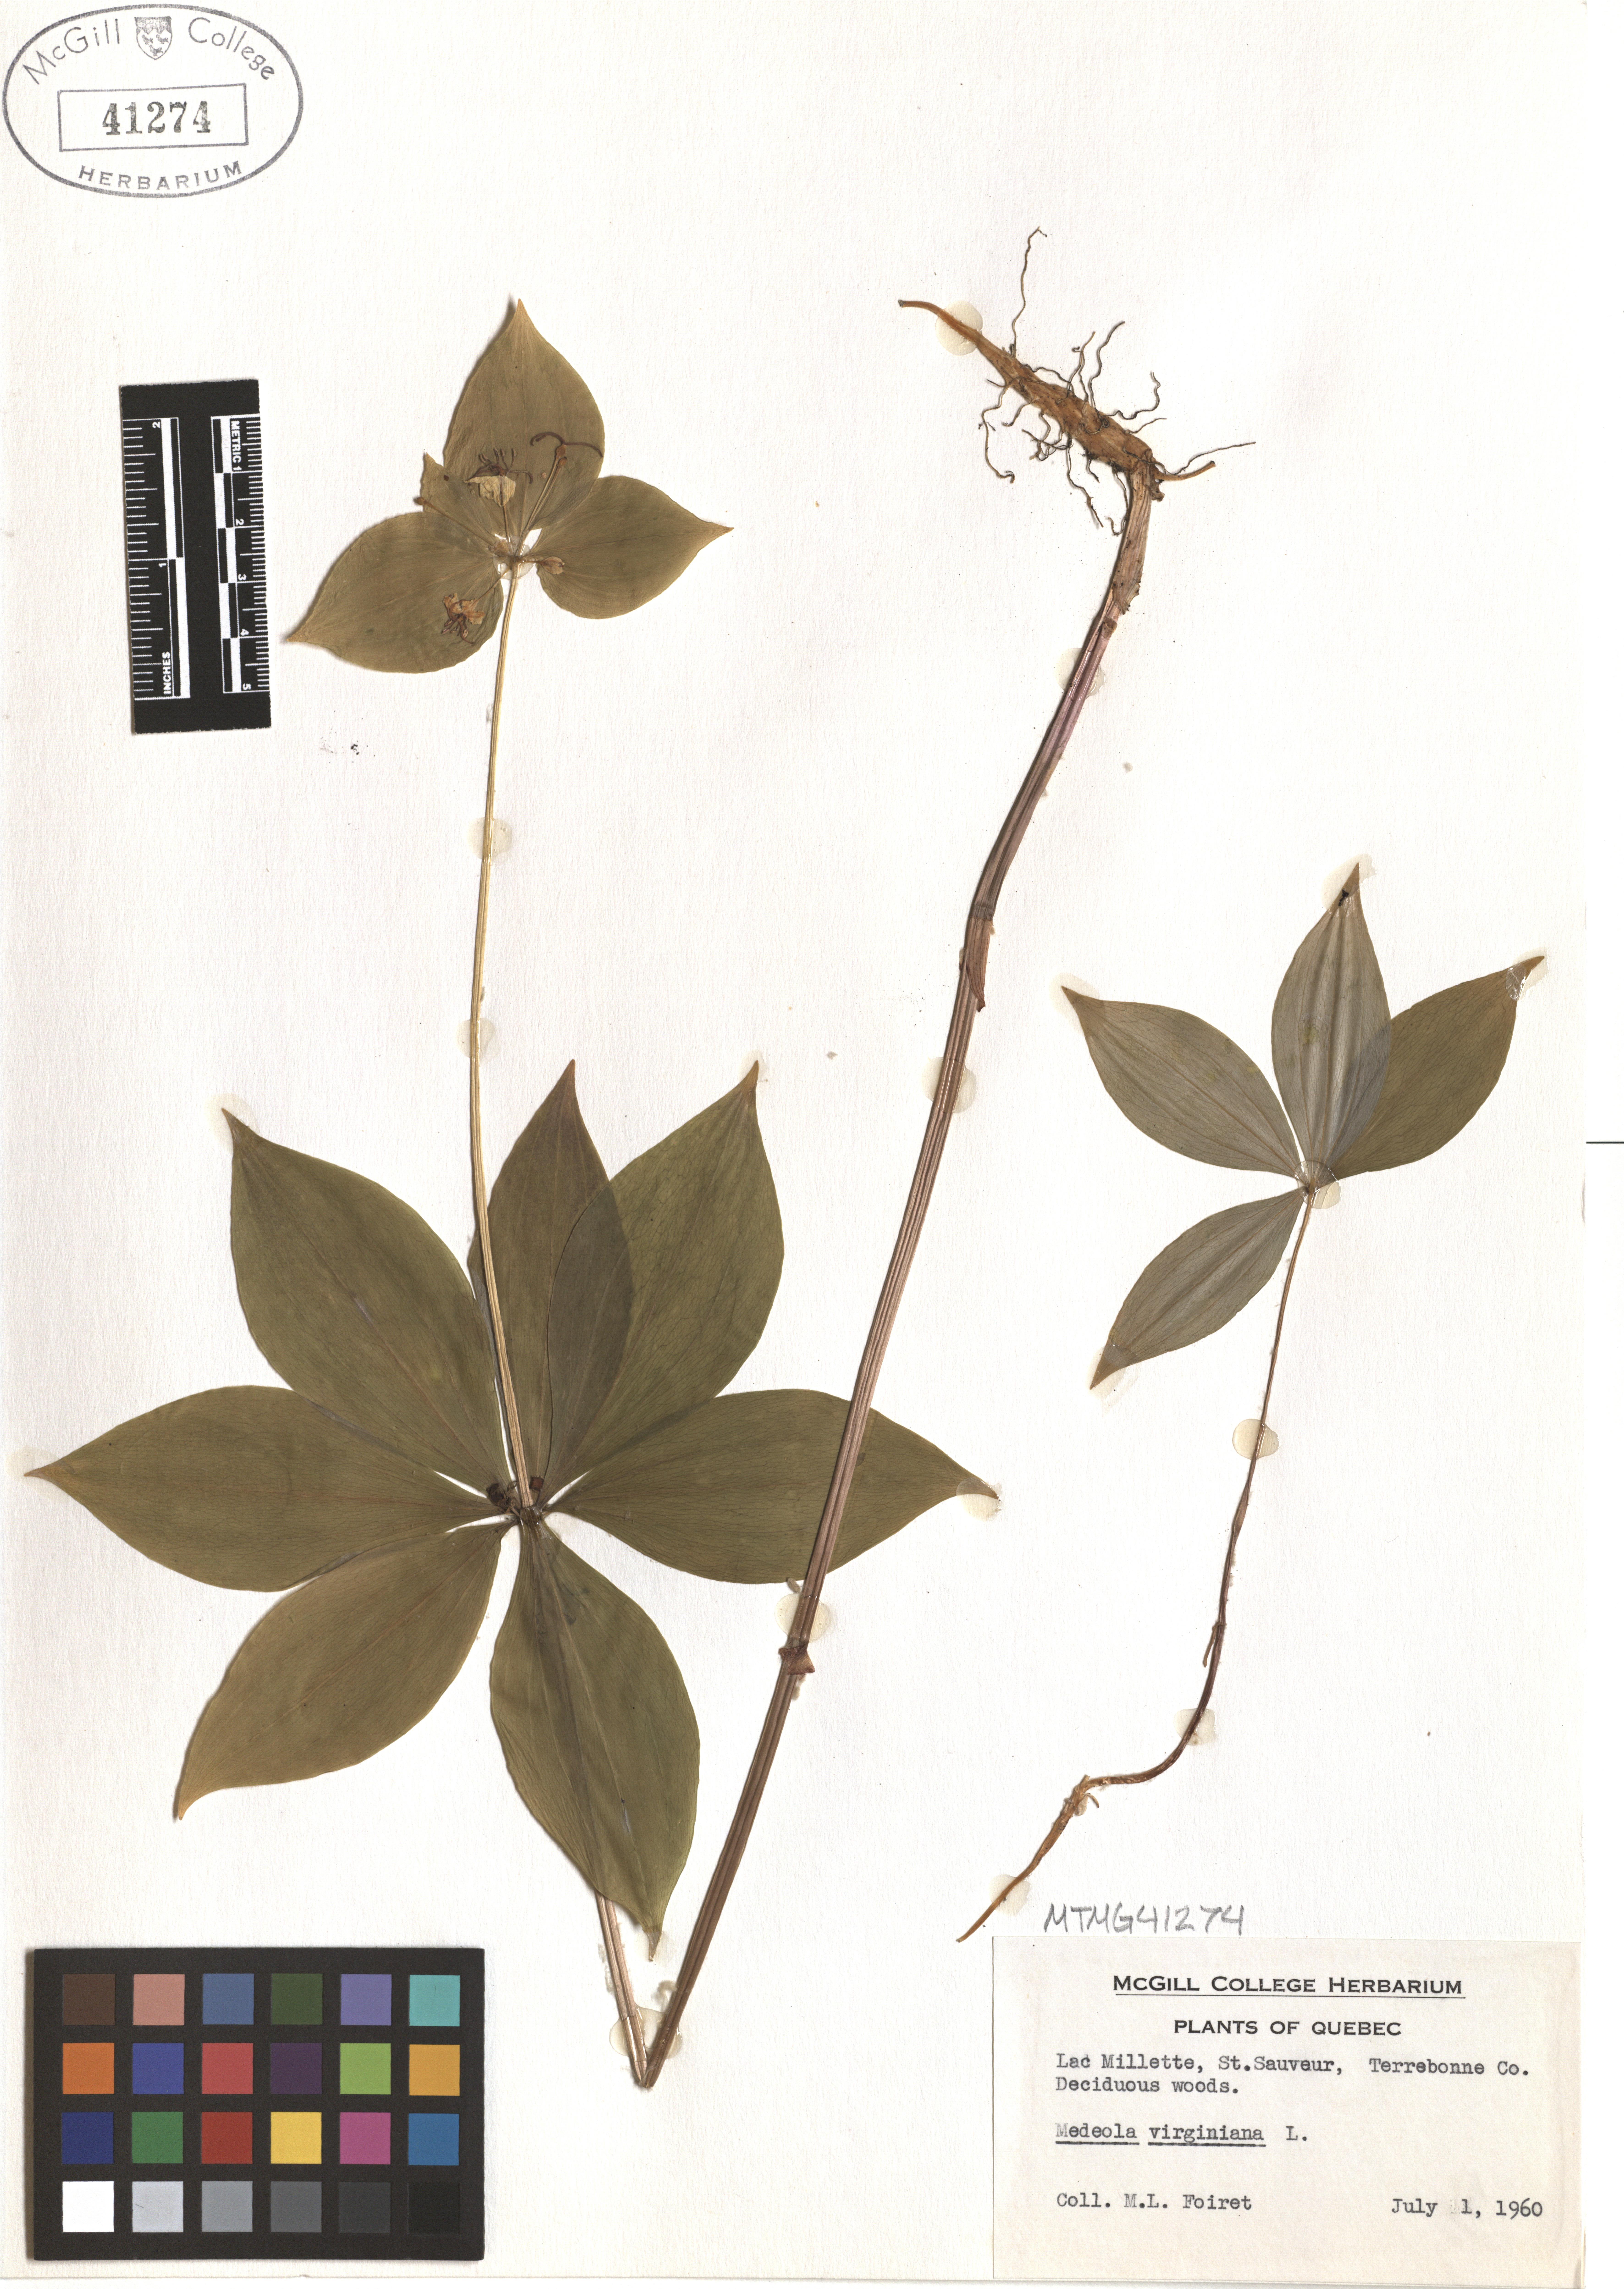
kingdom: Plantae
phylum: Tracheophyta
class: Liliopsida
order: Liliales
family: Liliaceae
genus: Medeola
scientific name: Medeola virginiana
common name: Indian cucumber-root
